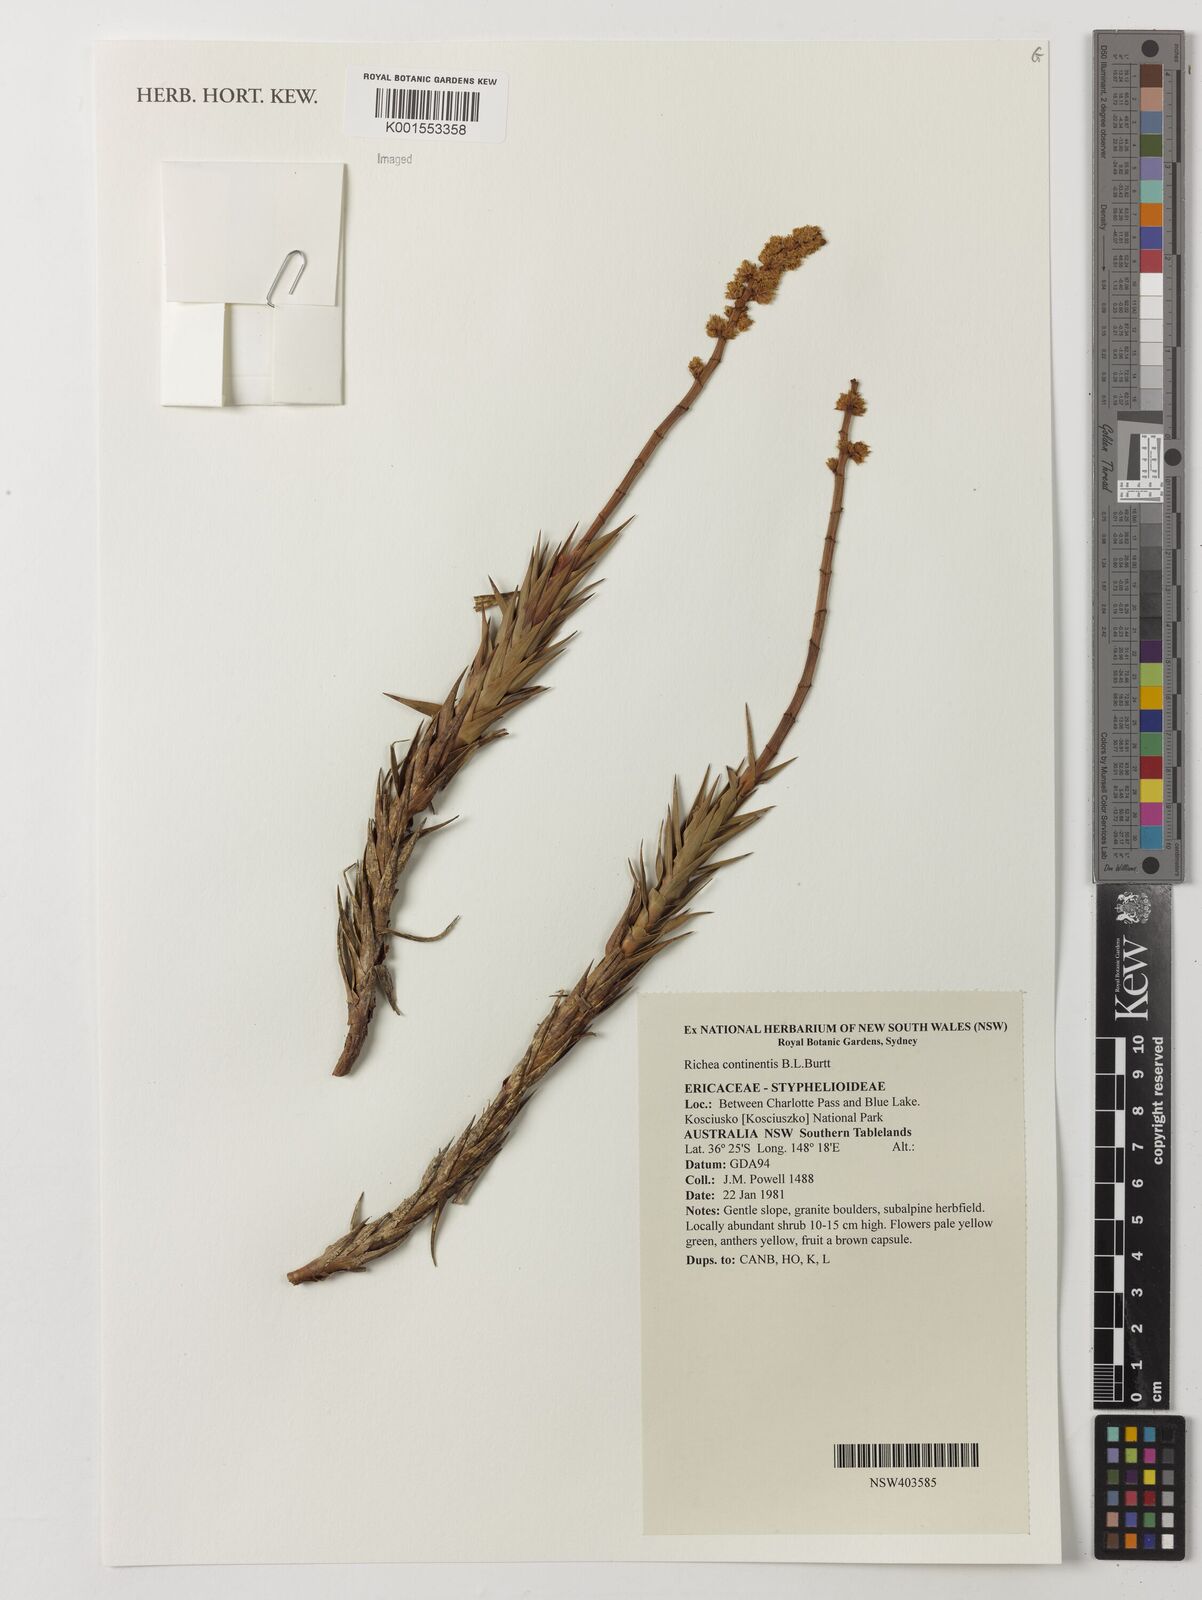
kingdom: Plantae
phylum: Tracheophyta
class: Magnoliopsida
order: Ericales
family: Ericaceae
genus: Dracophyllum
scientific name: Dracophyllum continentis
